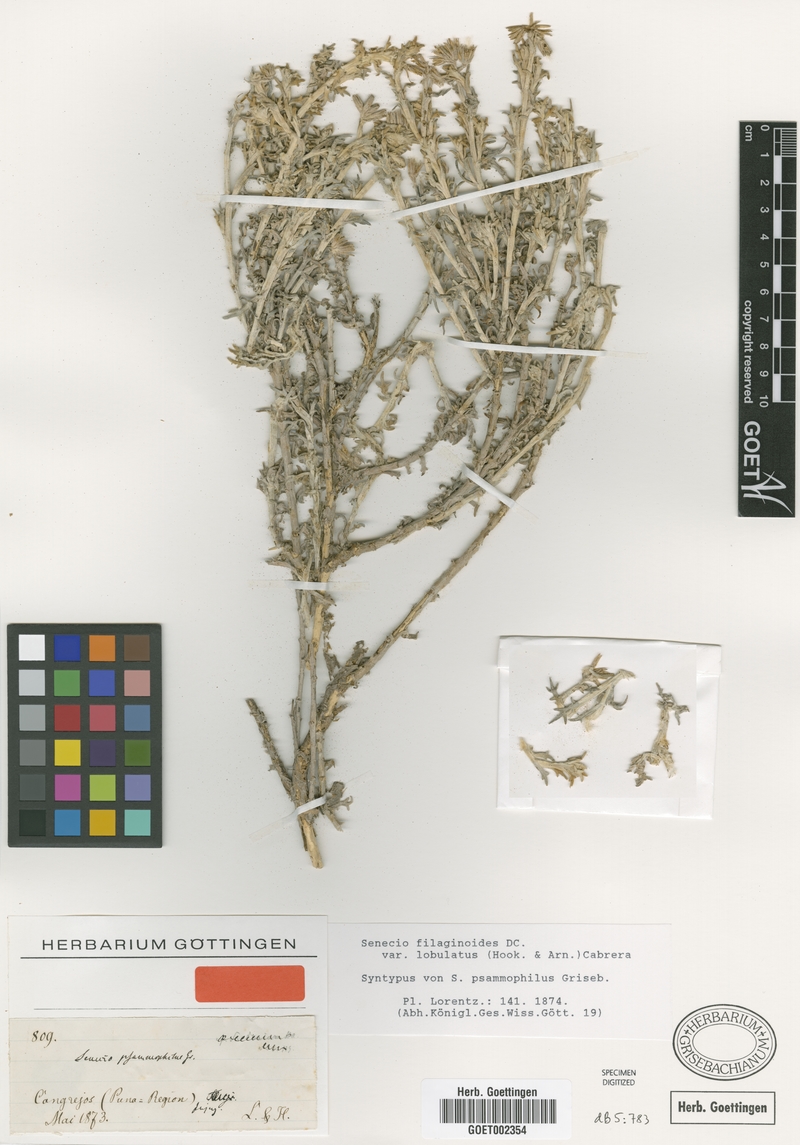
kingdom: Plantae
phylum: Tracheophyta
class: Magnoliopsida
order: Asterales
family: Asteraceae
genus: Senecio
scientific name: Senecio filaginoides
